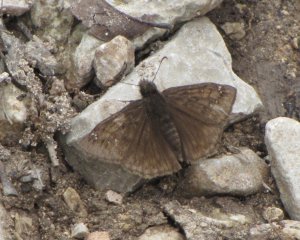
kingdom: Animalia
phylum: Arthropoda
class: Insecta
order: Lepidoptera
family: Hesperiidae
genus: Gesta
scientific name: Gesta
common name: Horace's Duskywing
